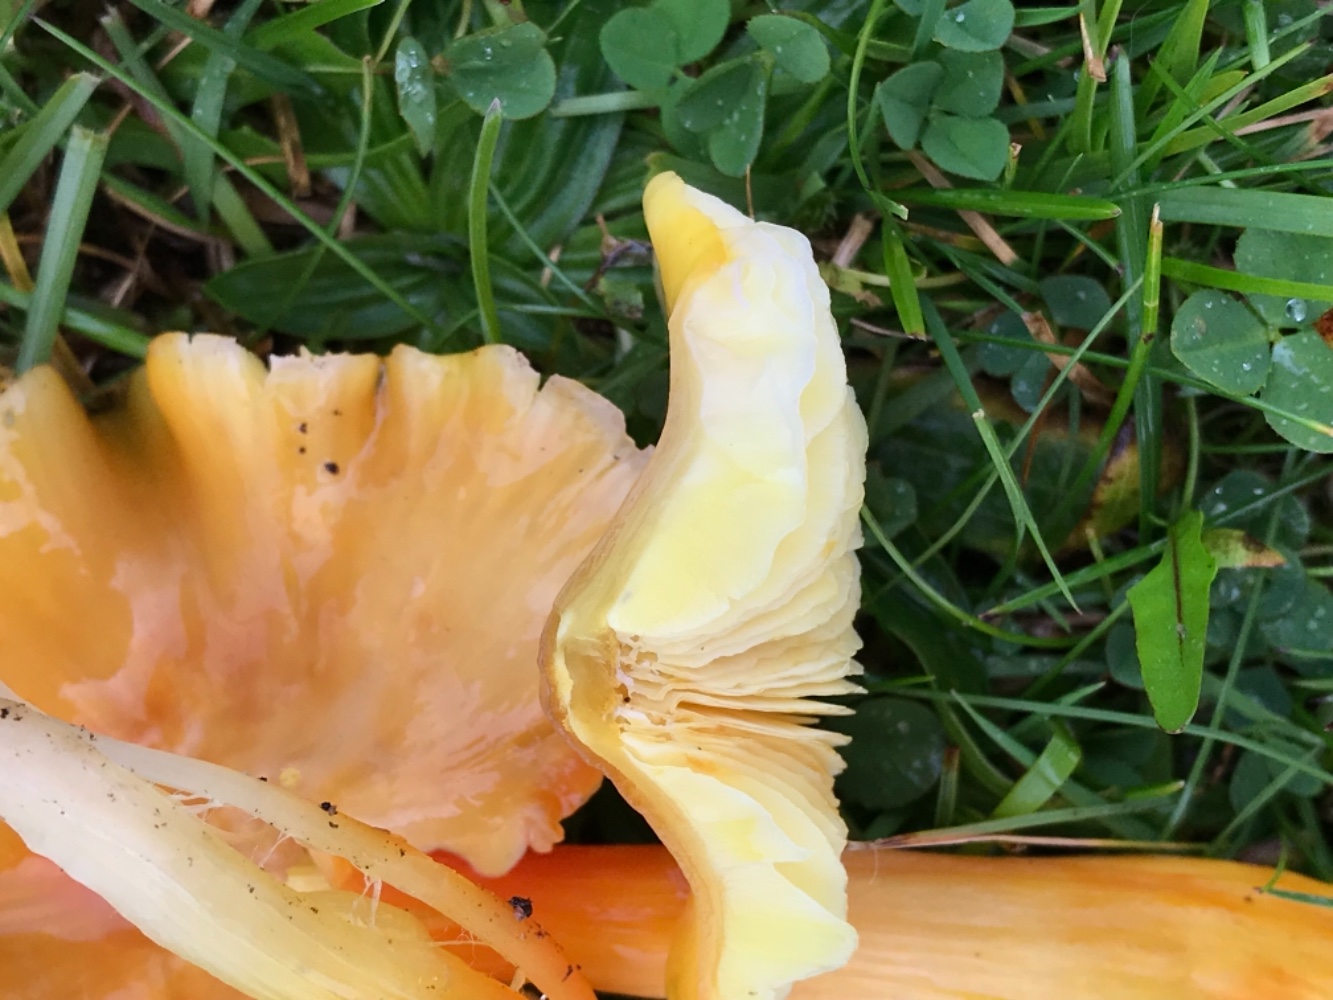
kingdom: Fungi
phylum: Basidiomycota
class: Agaricomycetes
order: Agaricales
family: Hygrophoraceae
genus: Hygrocybe
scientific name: Hygrocybe acutoconica
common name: spidspuklet vokshat
